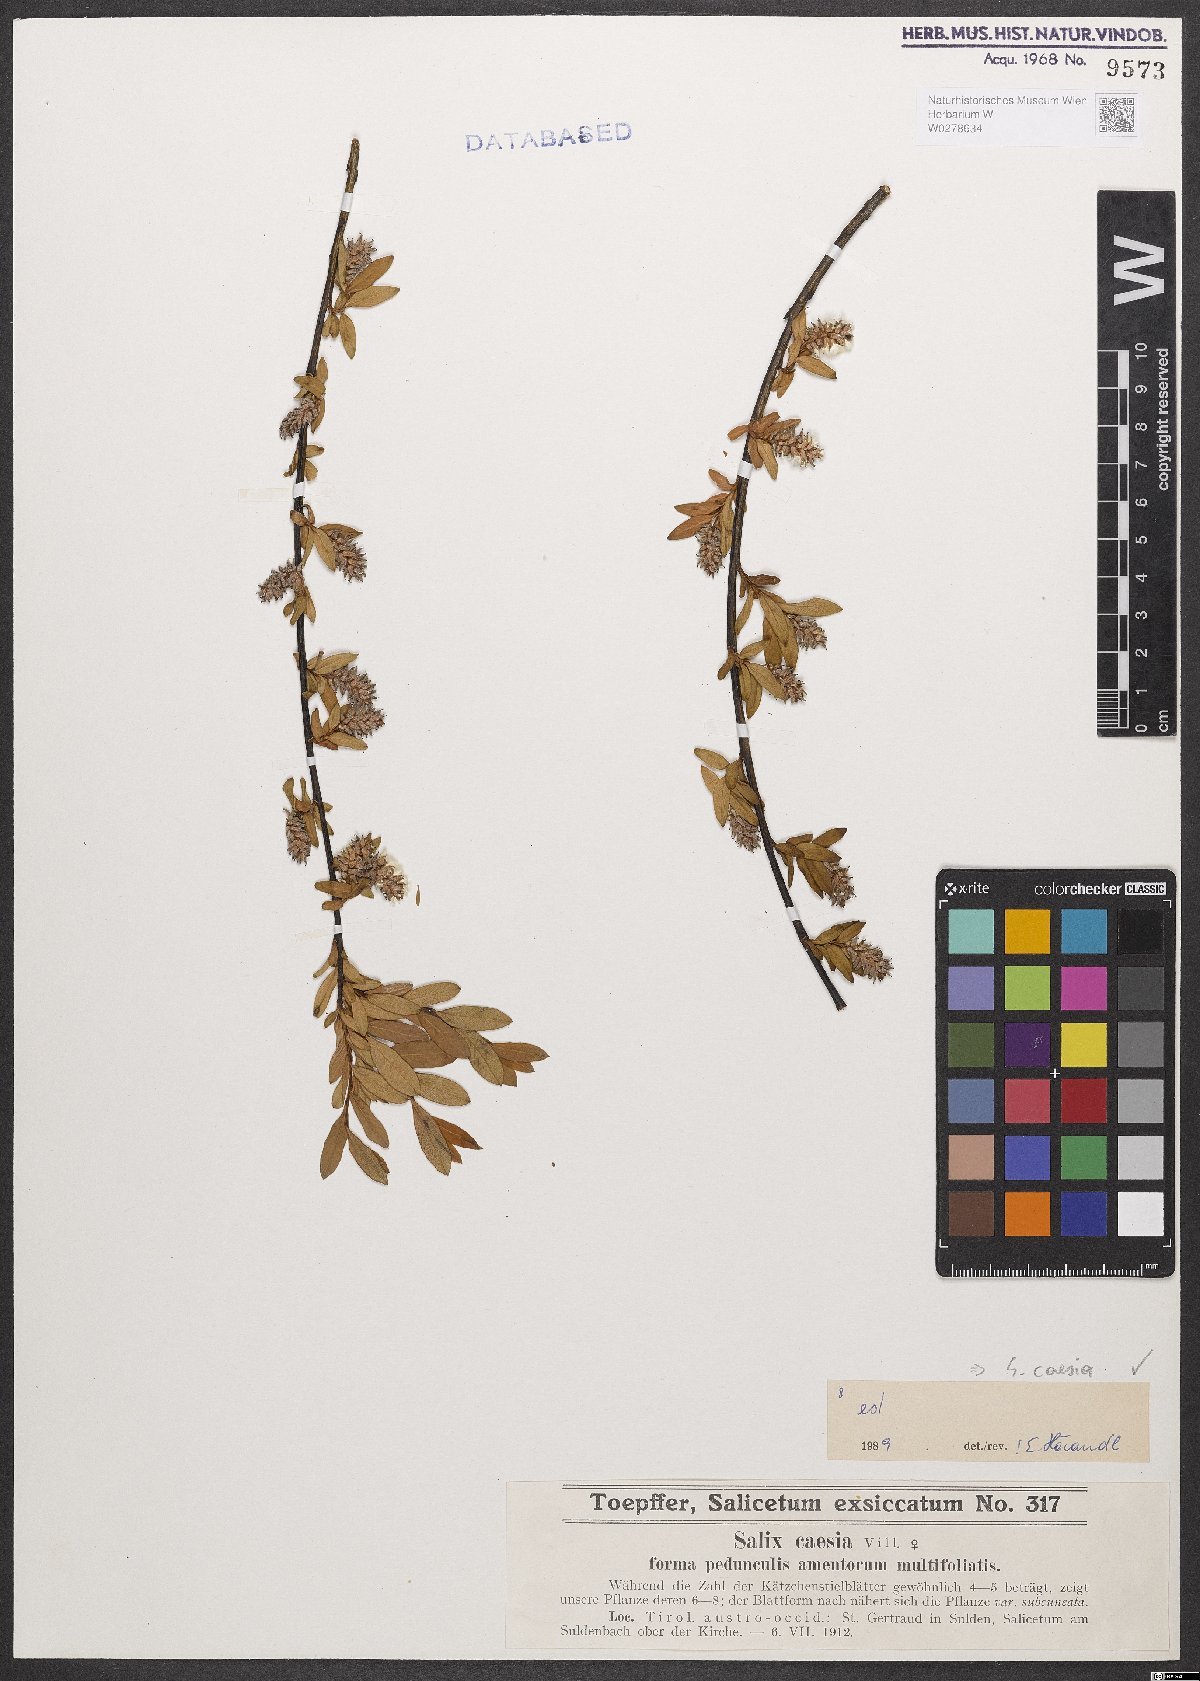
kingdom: Plantae
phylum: Tracheophyta
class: Magnoliopsida
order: Malpighiales
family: Salicaceae
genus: Salix
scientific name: Salix caesia
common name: Blue willow
